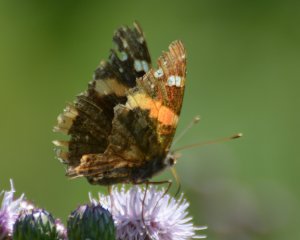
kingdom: Animalia
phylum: Arthropoda
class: Insecta
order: Lepidoptera
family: Nymphalidae
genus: Vanessa
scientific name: Vanessa atalanta
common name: Red Admiral
